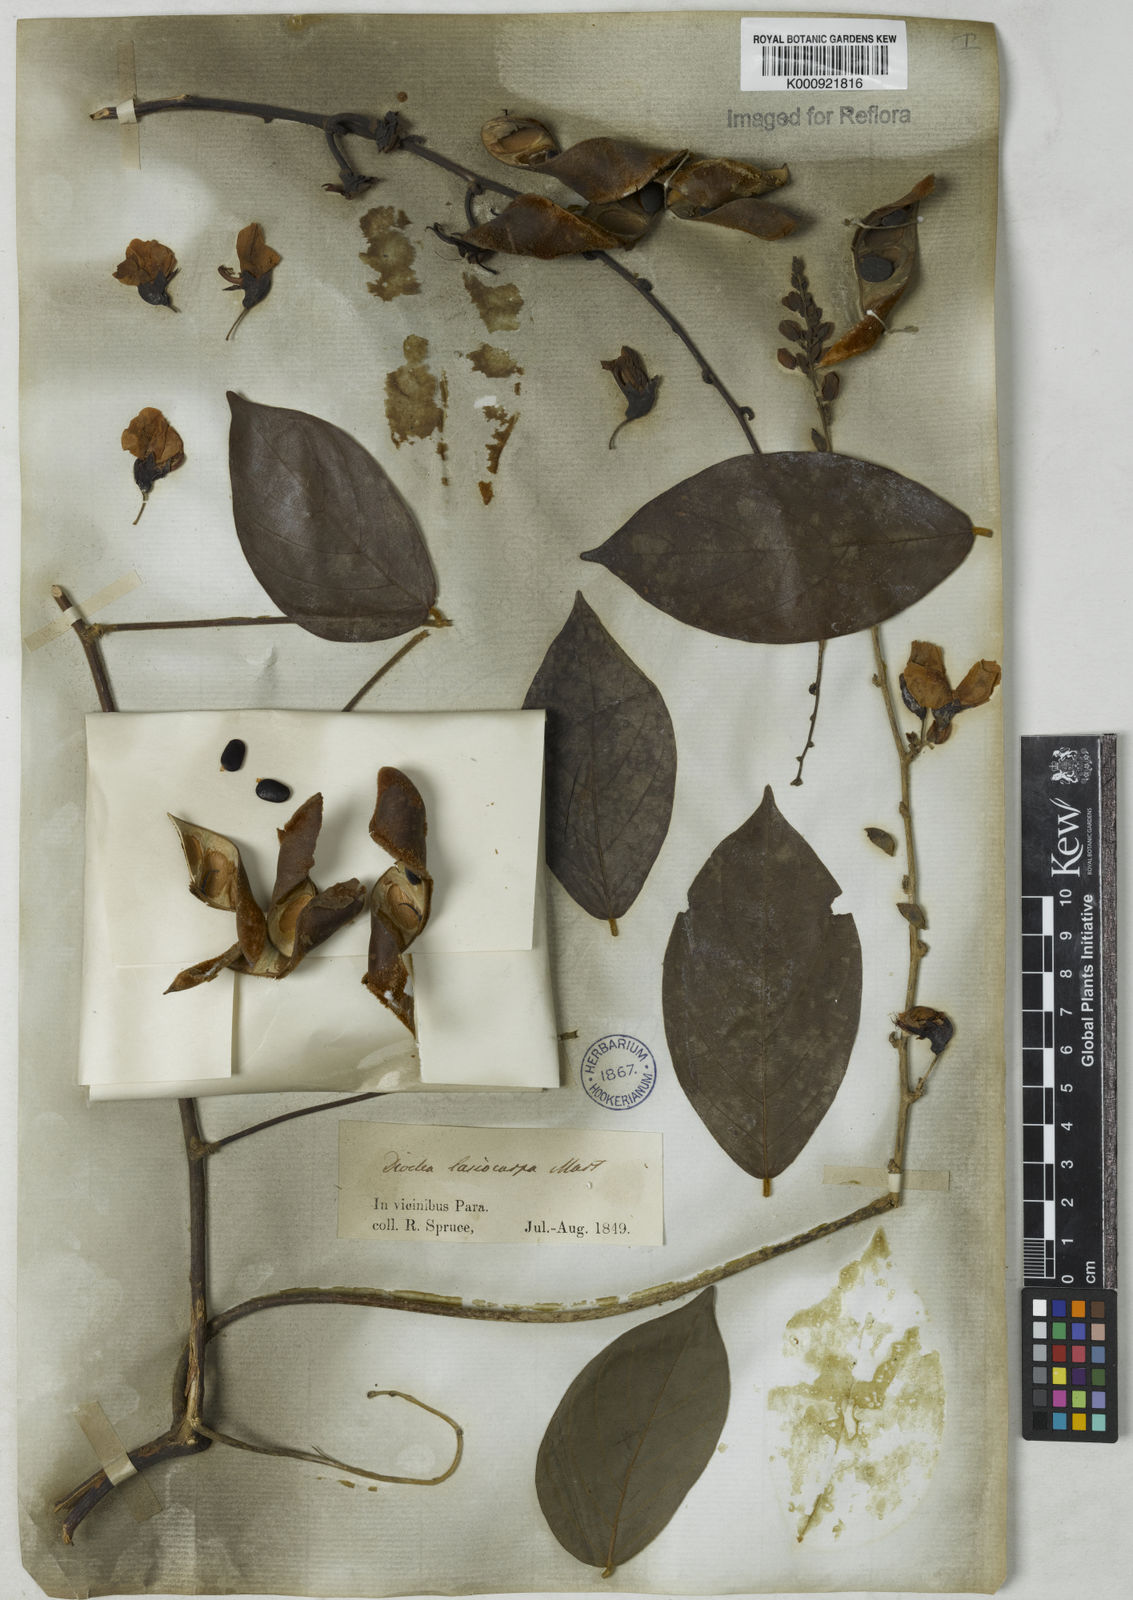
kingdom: Plantae
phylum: Tracheophyta
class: Magnoliopsida
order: Fabales
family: Fabaceae
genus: Dioclea
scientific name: Dioclea virgata
